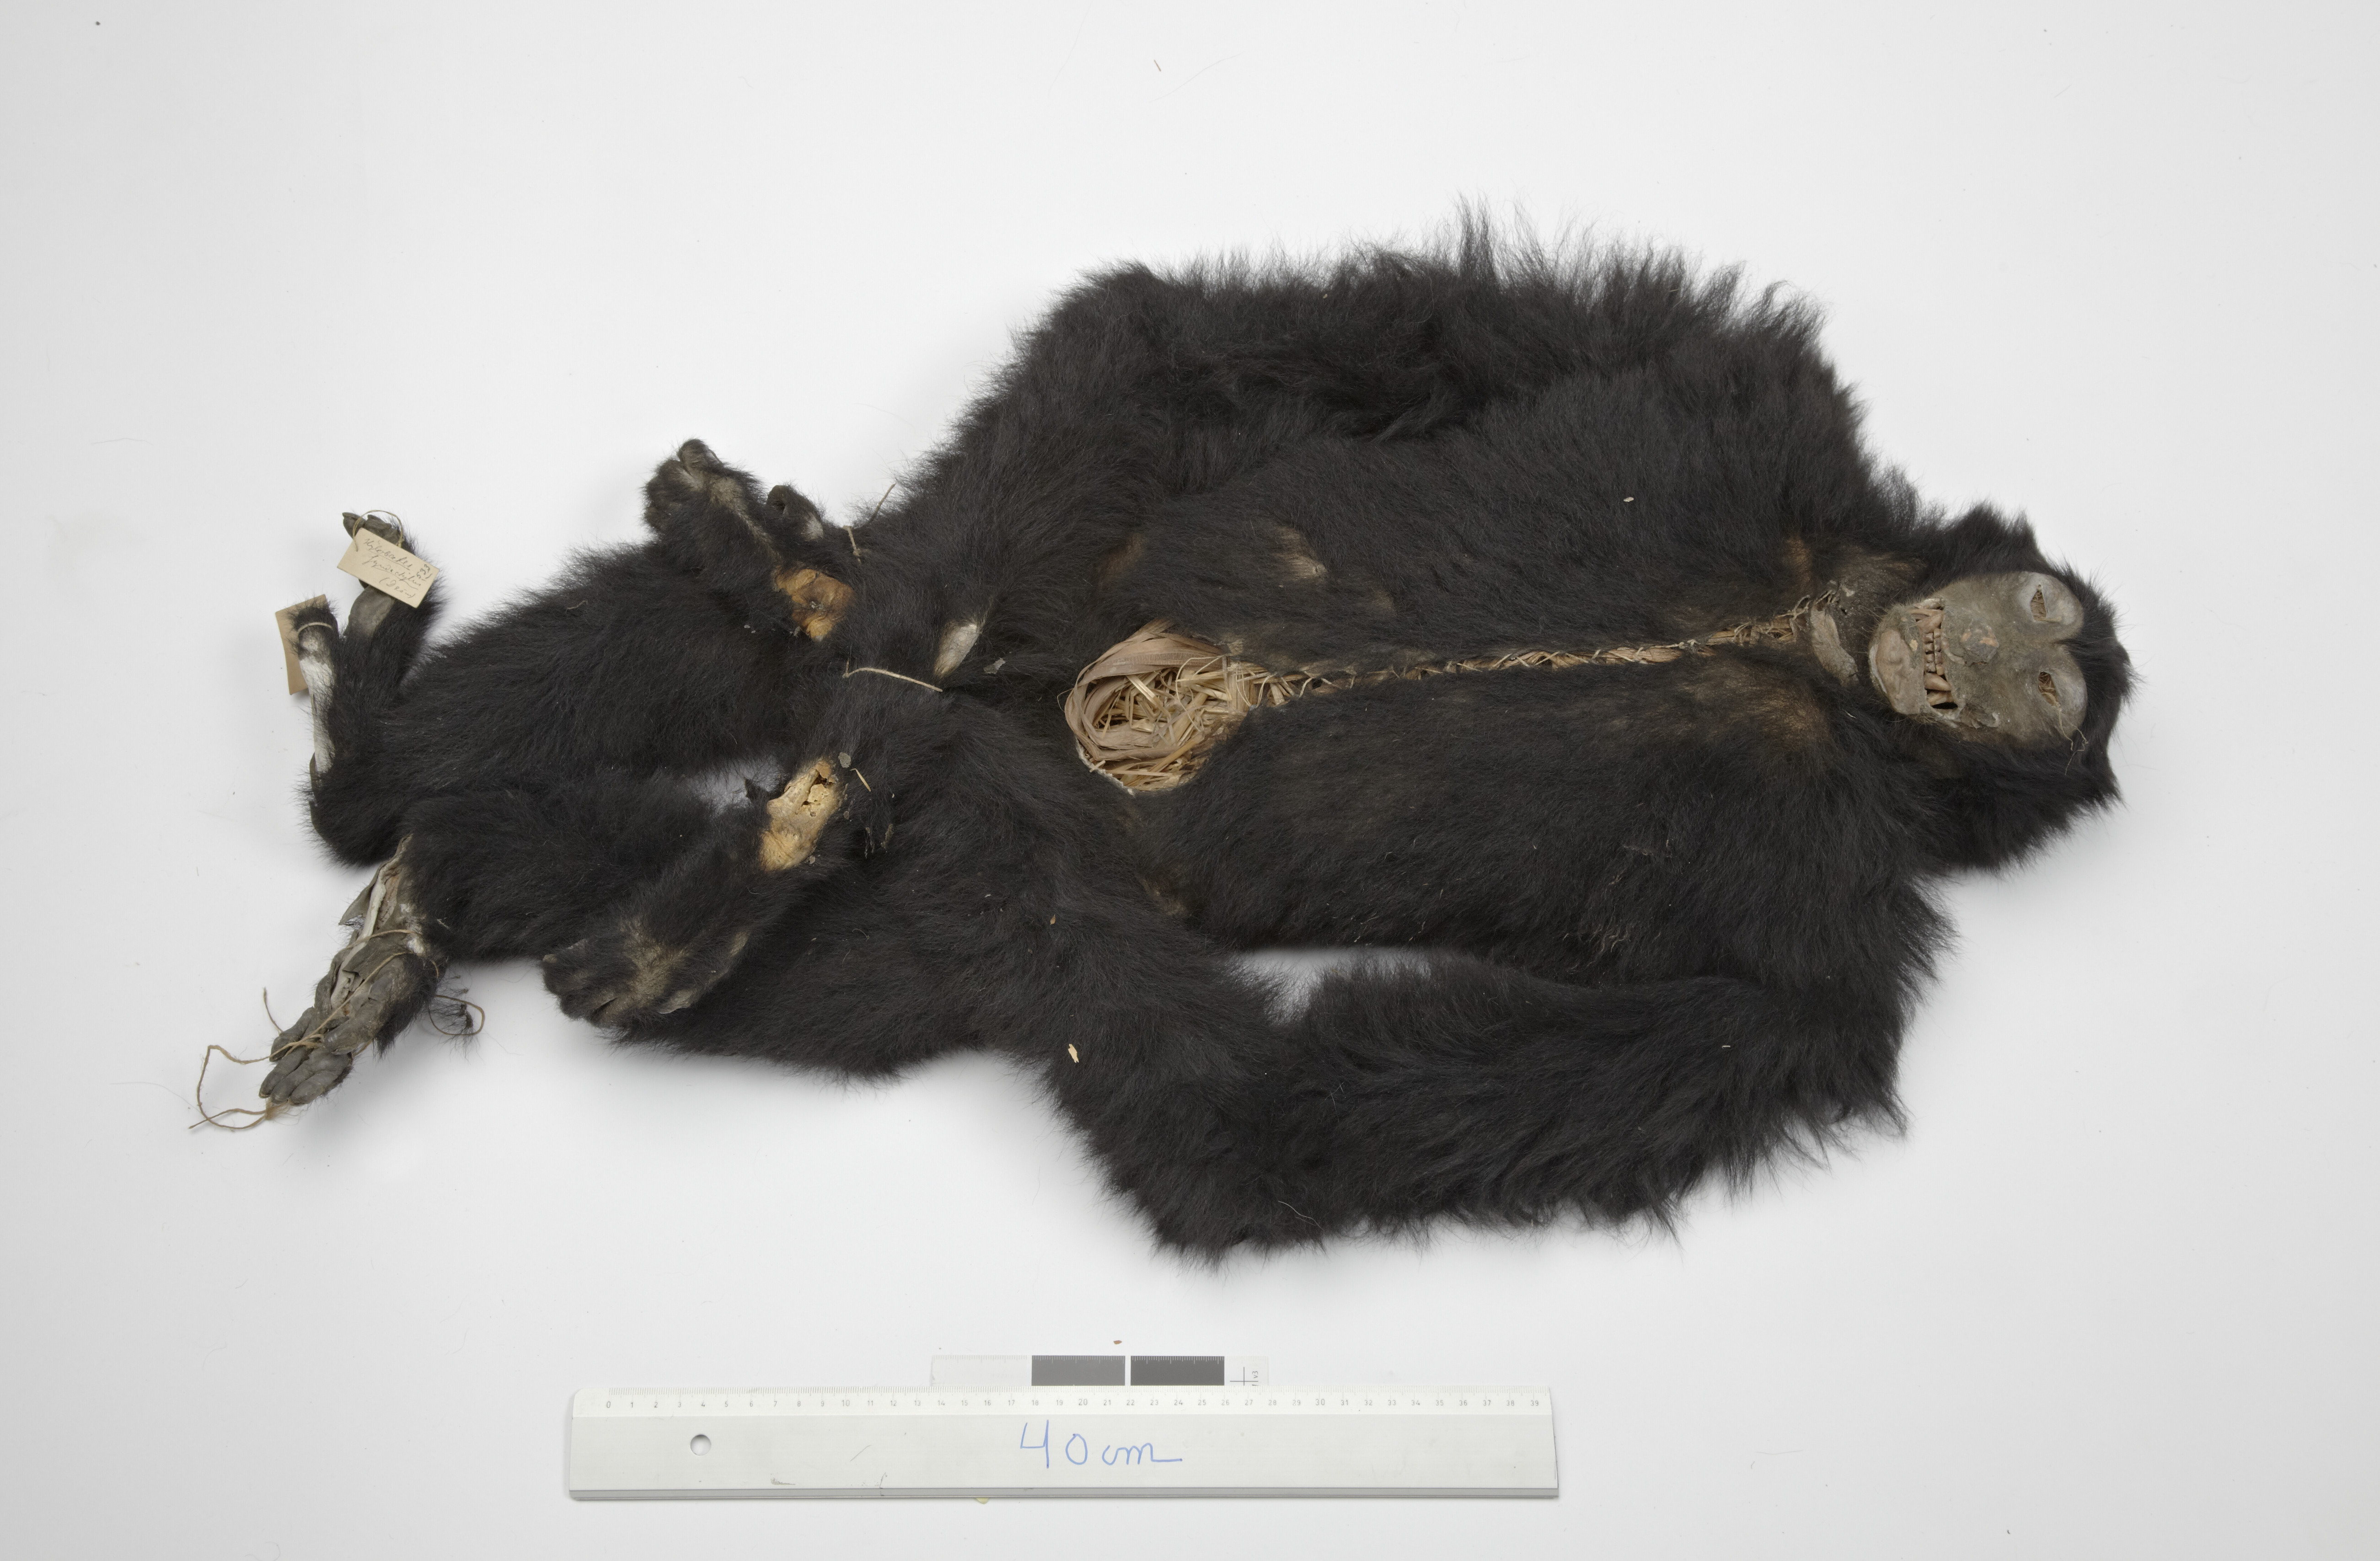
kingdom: Animalia
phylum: Chordata
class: Mammalia
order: Primates
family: Hylobatidae
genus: Symphalangus
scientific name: Symphalangus syndactylus
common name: Siamang
